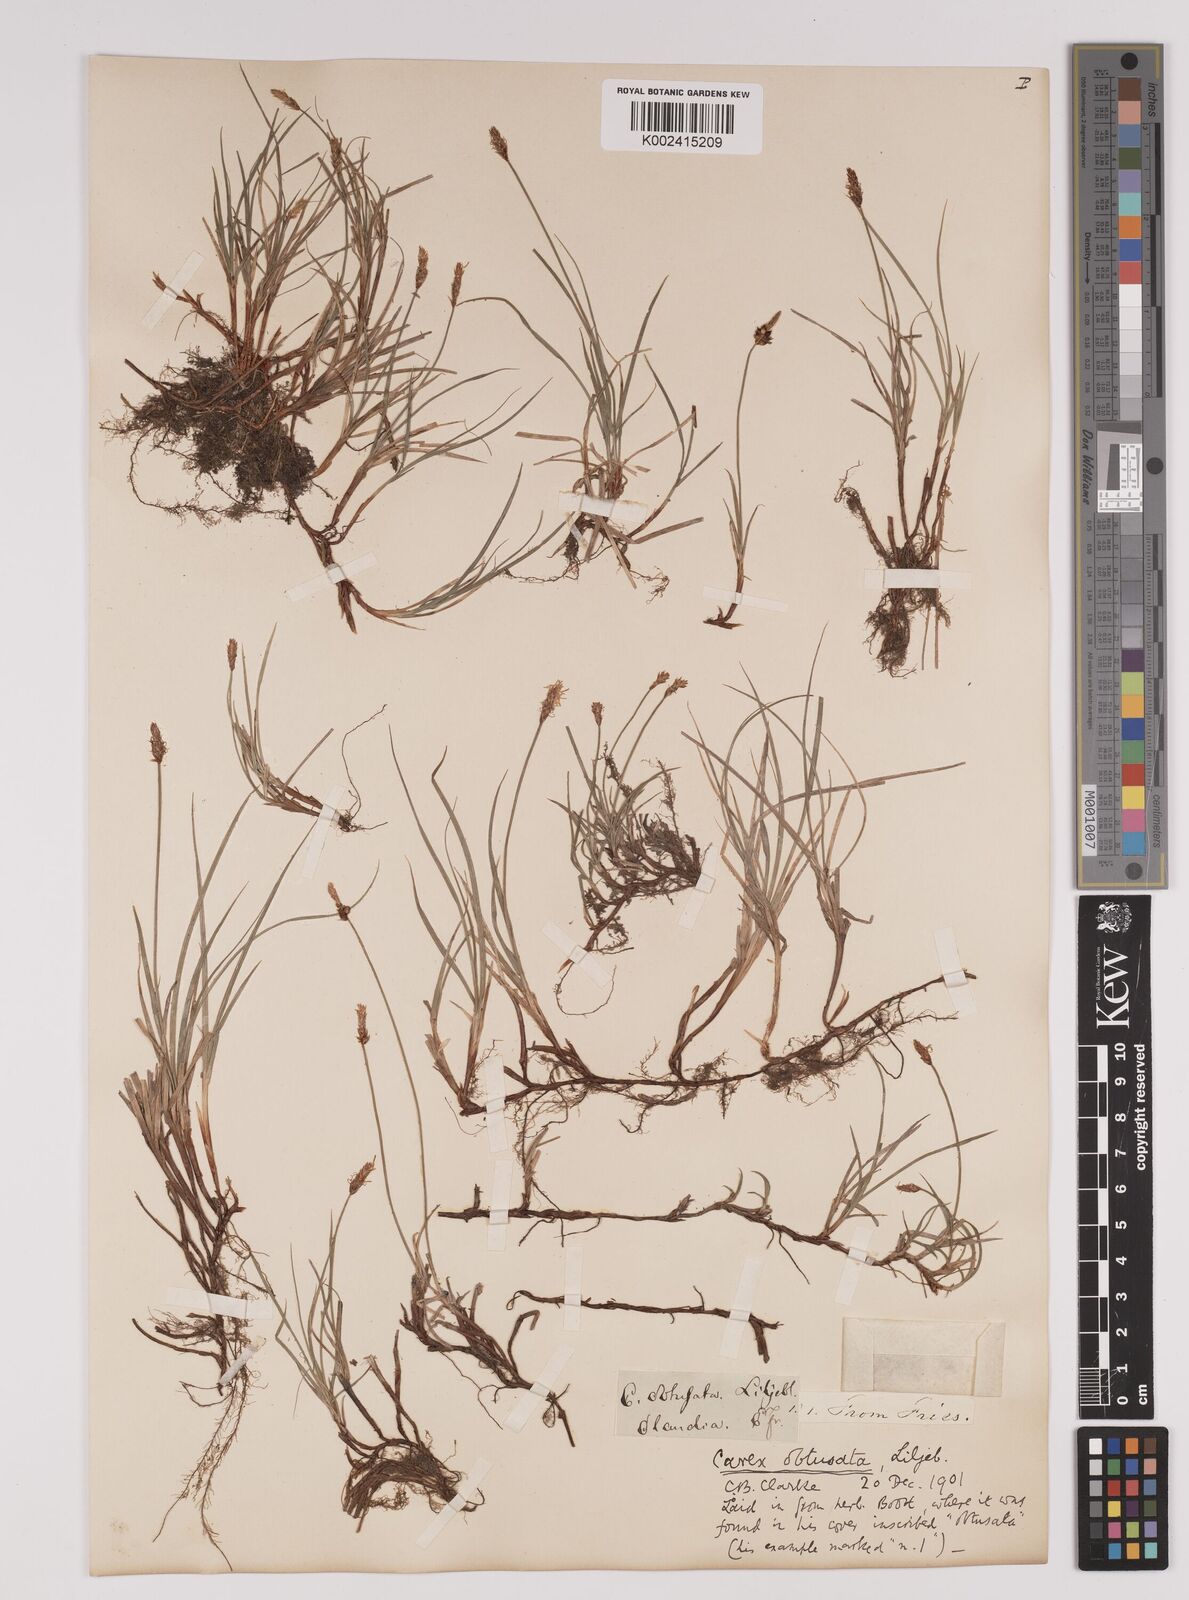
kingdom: Plantae
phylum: Tracheophyta
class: Liliopsida
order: Poales
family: Cyperaceae
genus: Carex
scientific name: Carex obtusata
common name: Blunt sedge
